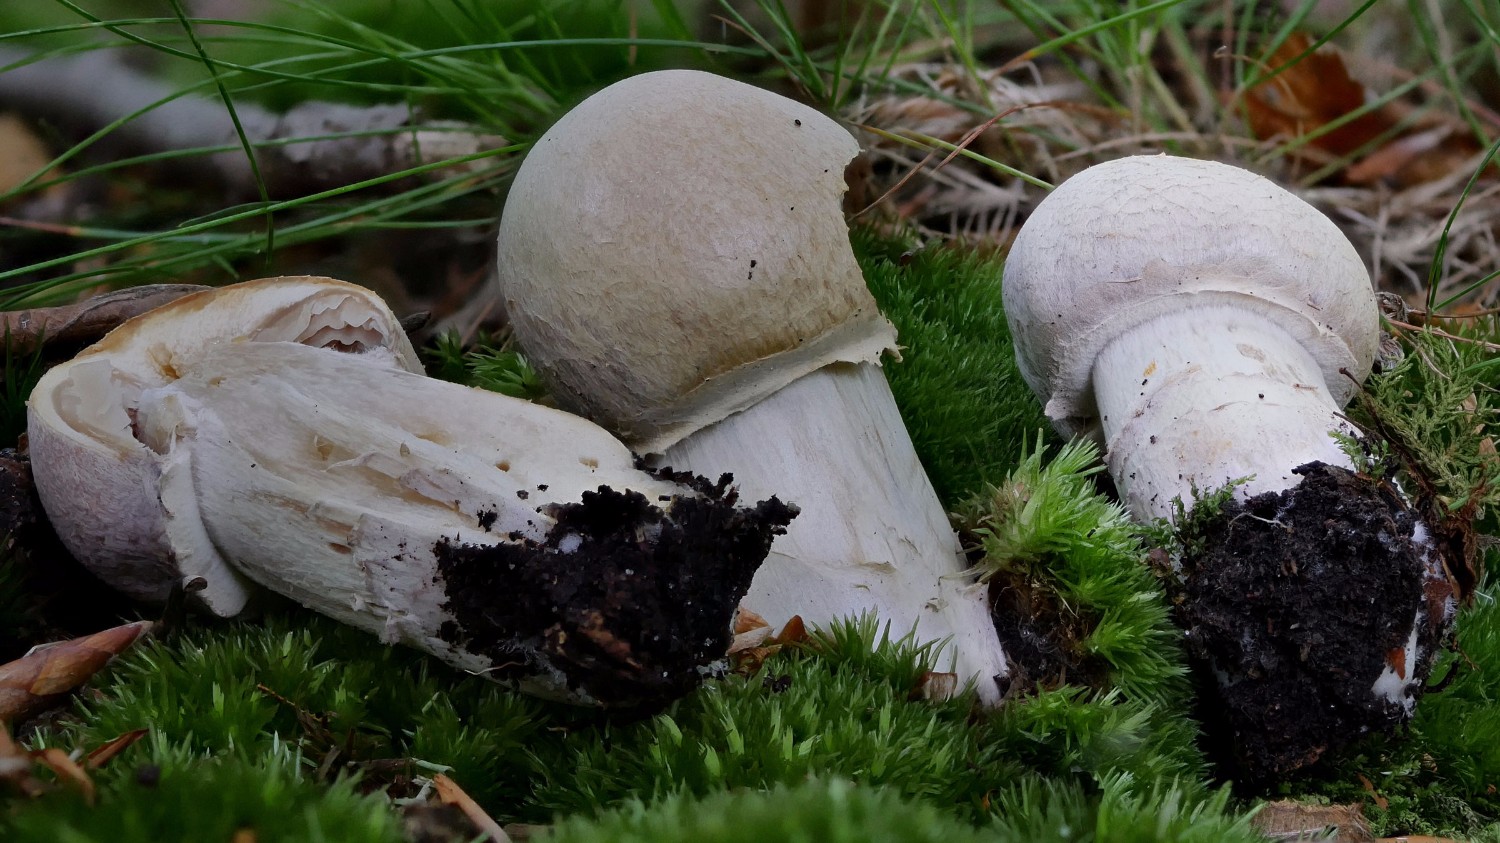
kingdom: Fungi
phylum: Basidiomycota
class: Agaricomycetes
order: Agaricales
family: Cortinariaceae
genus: Cortinarius
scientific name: Cortinarius caperatus
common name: klidhat
